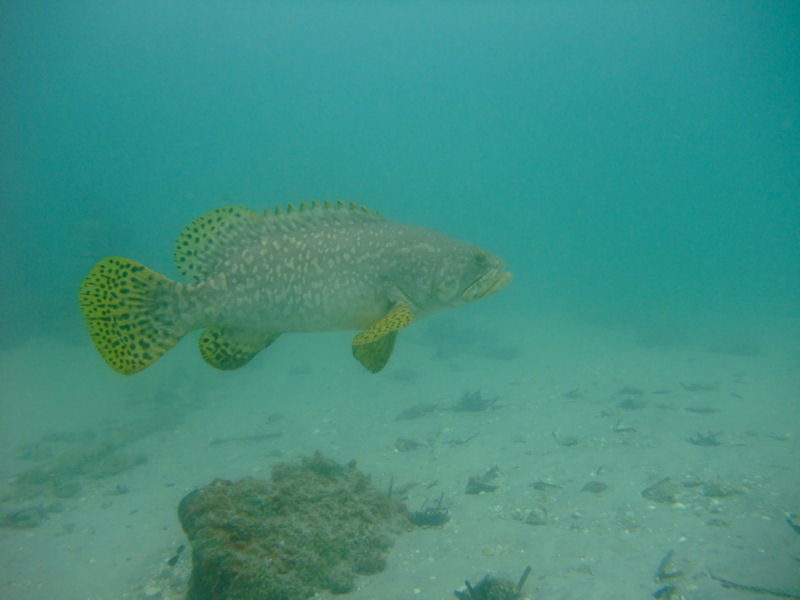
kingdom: Animalia
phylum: Chordata
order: Perciformes
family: Serranidae
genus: Epinephelus
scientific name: Epinephelus lanceolatus
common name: Giant grouper
